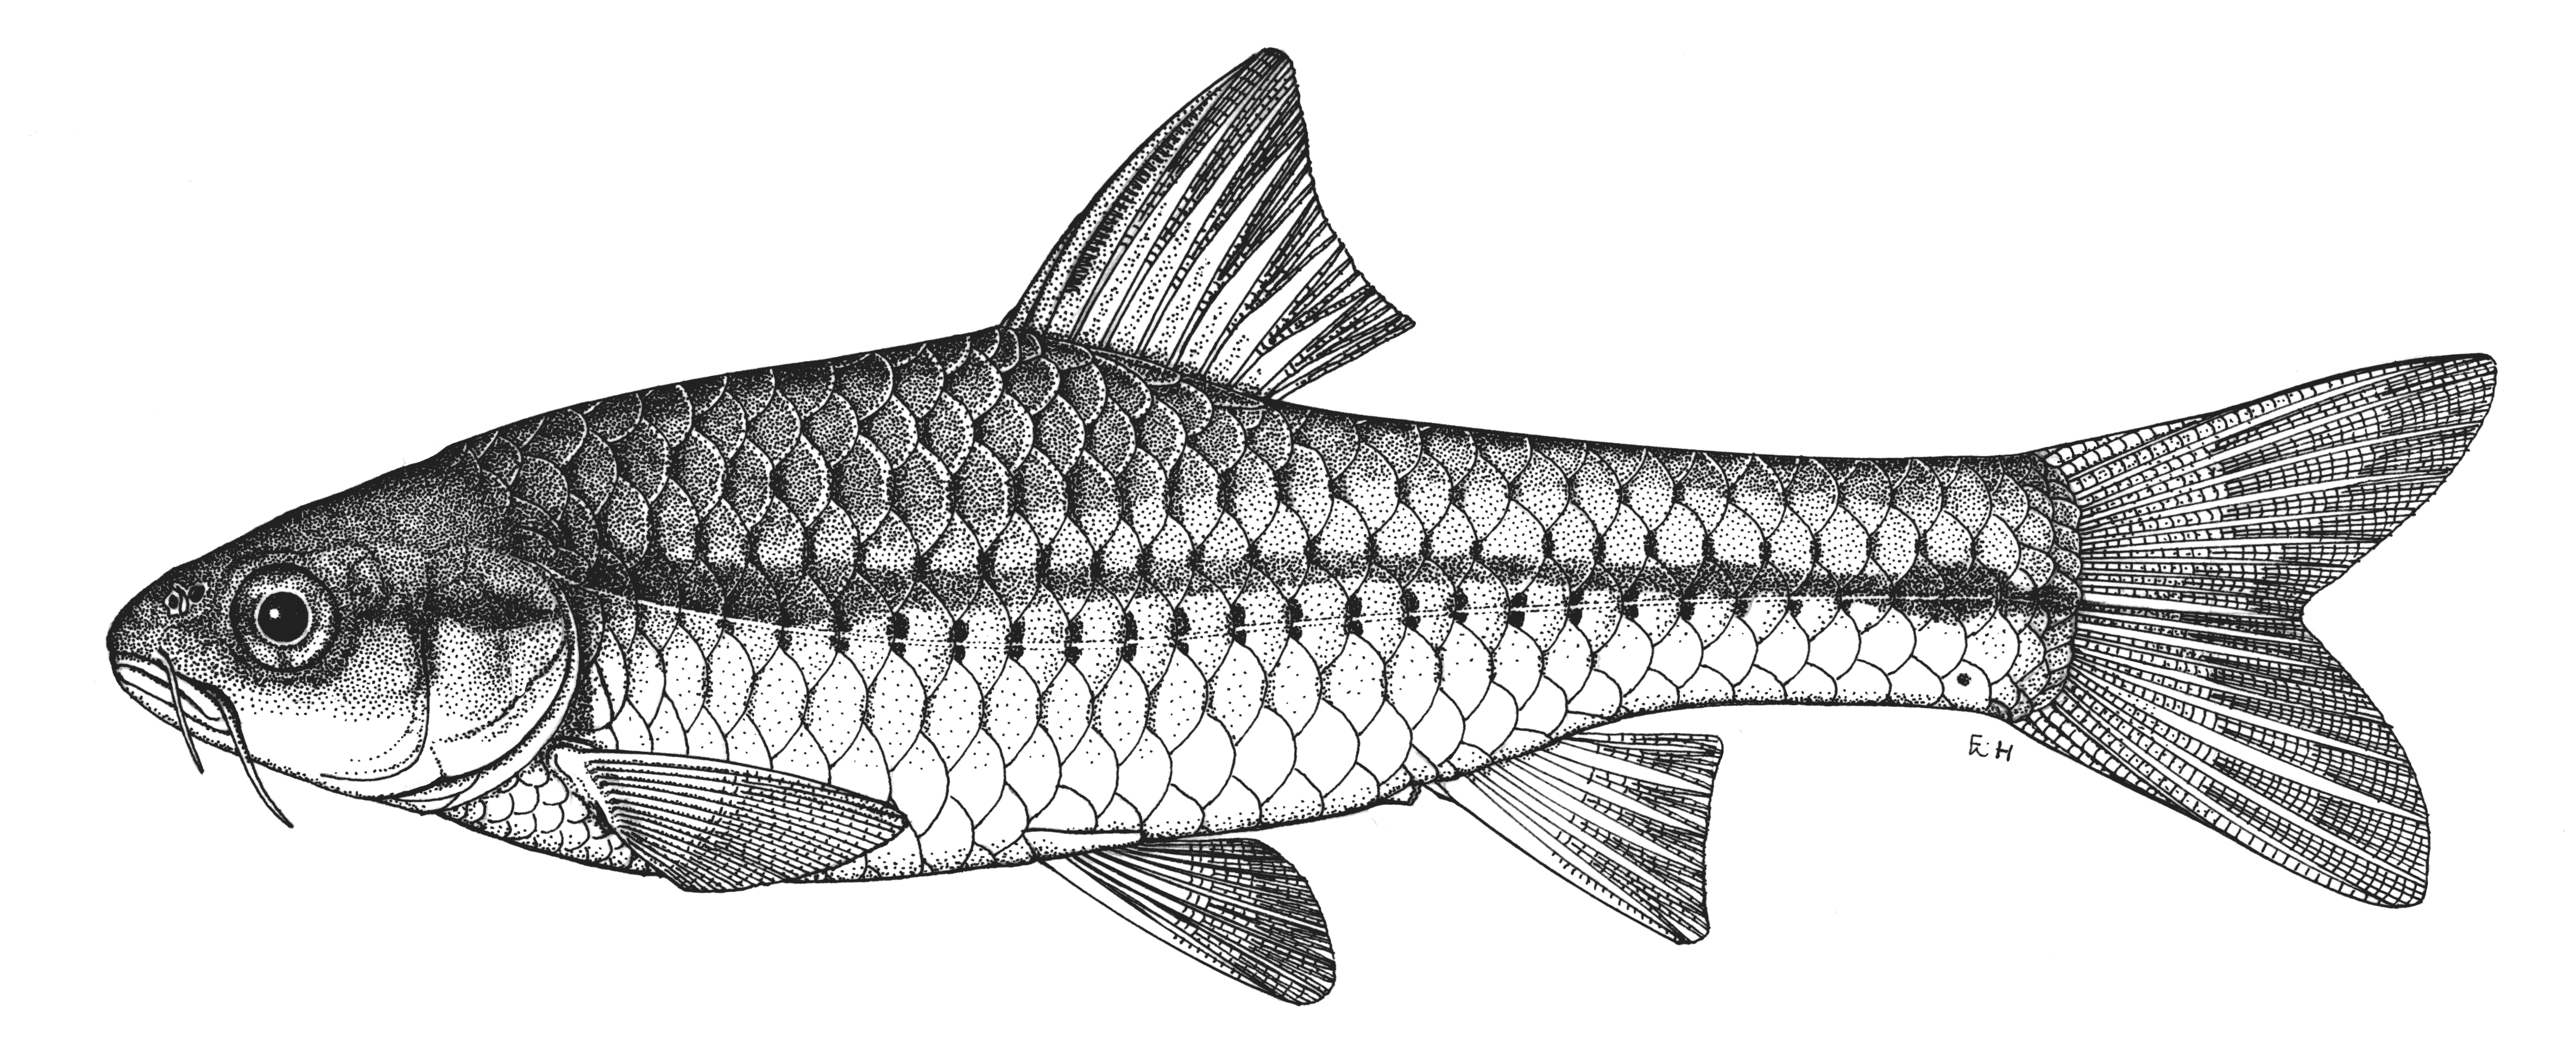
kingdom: Animalia
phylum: Chordata
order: Cypriniformes
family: Cyprinidae
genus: Enteromius
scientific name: Enteromius seymouri
